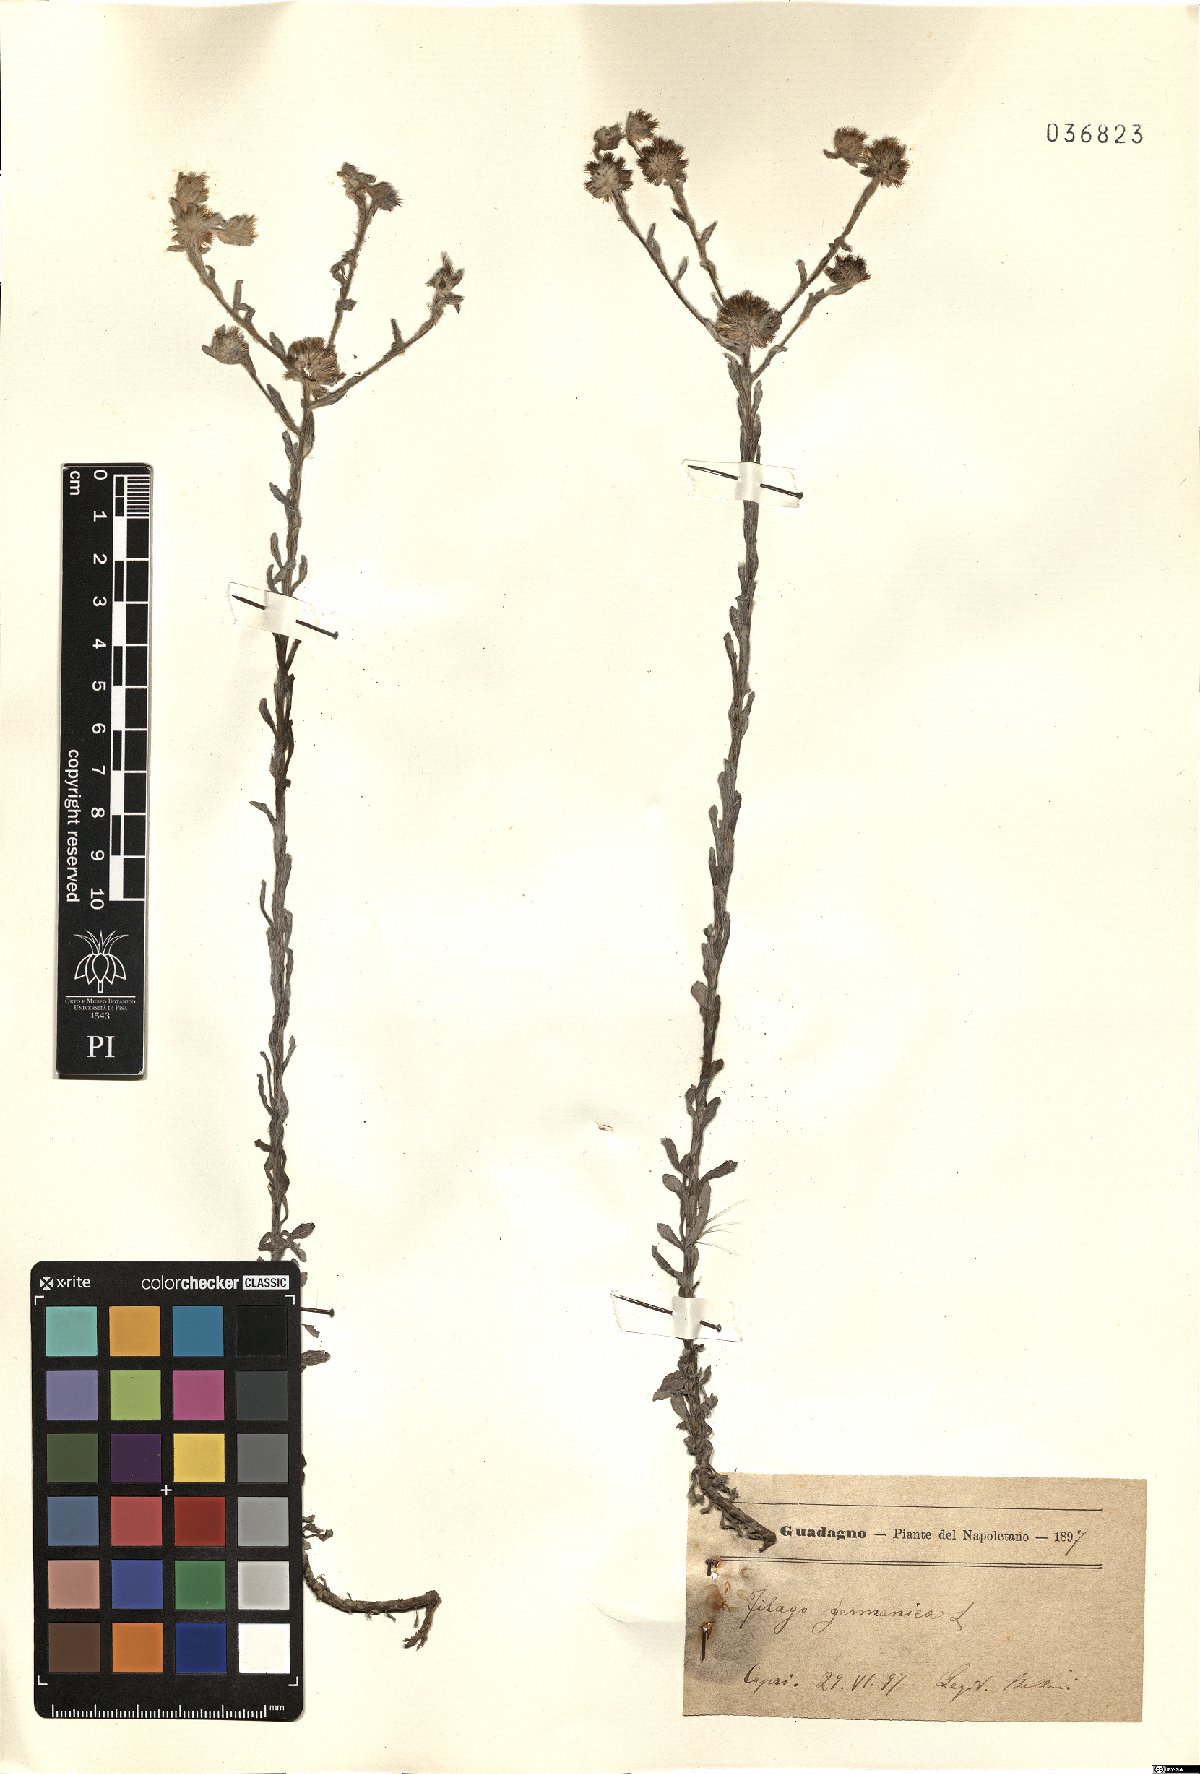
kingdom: Plantae
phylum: Tracheophyta
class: Magnoliopsida
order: Asterales
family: Asteraceae
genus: Filago
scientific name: Filago germanica
